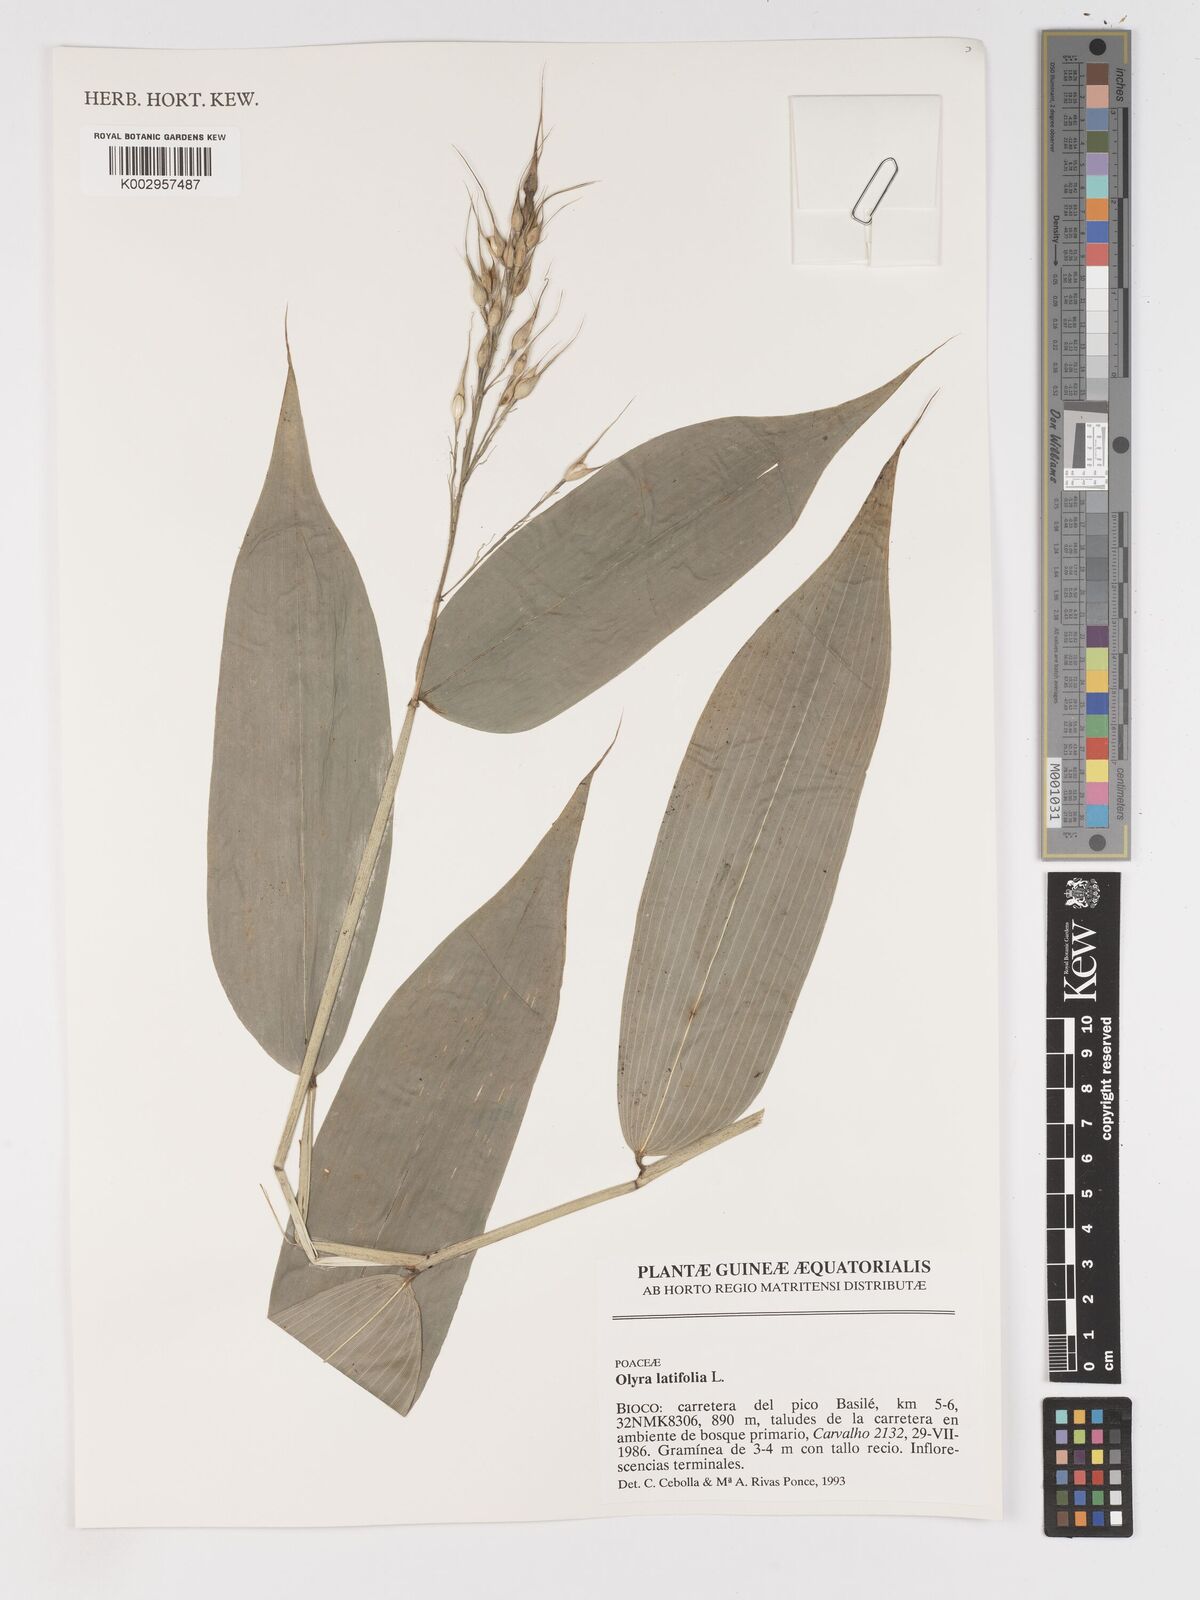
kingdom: Plantae
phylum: Tracheophyta
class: Liliopsida
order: Poales
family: Poaceae
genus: Olyra
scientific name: Olyra latifolia
